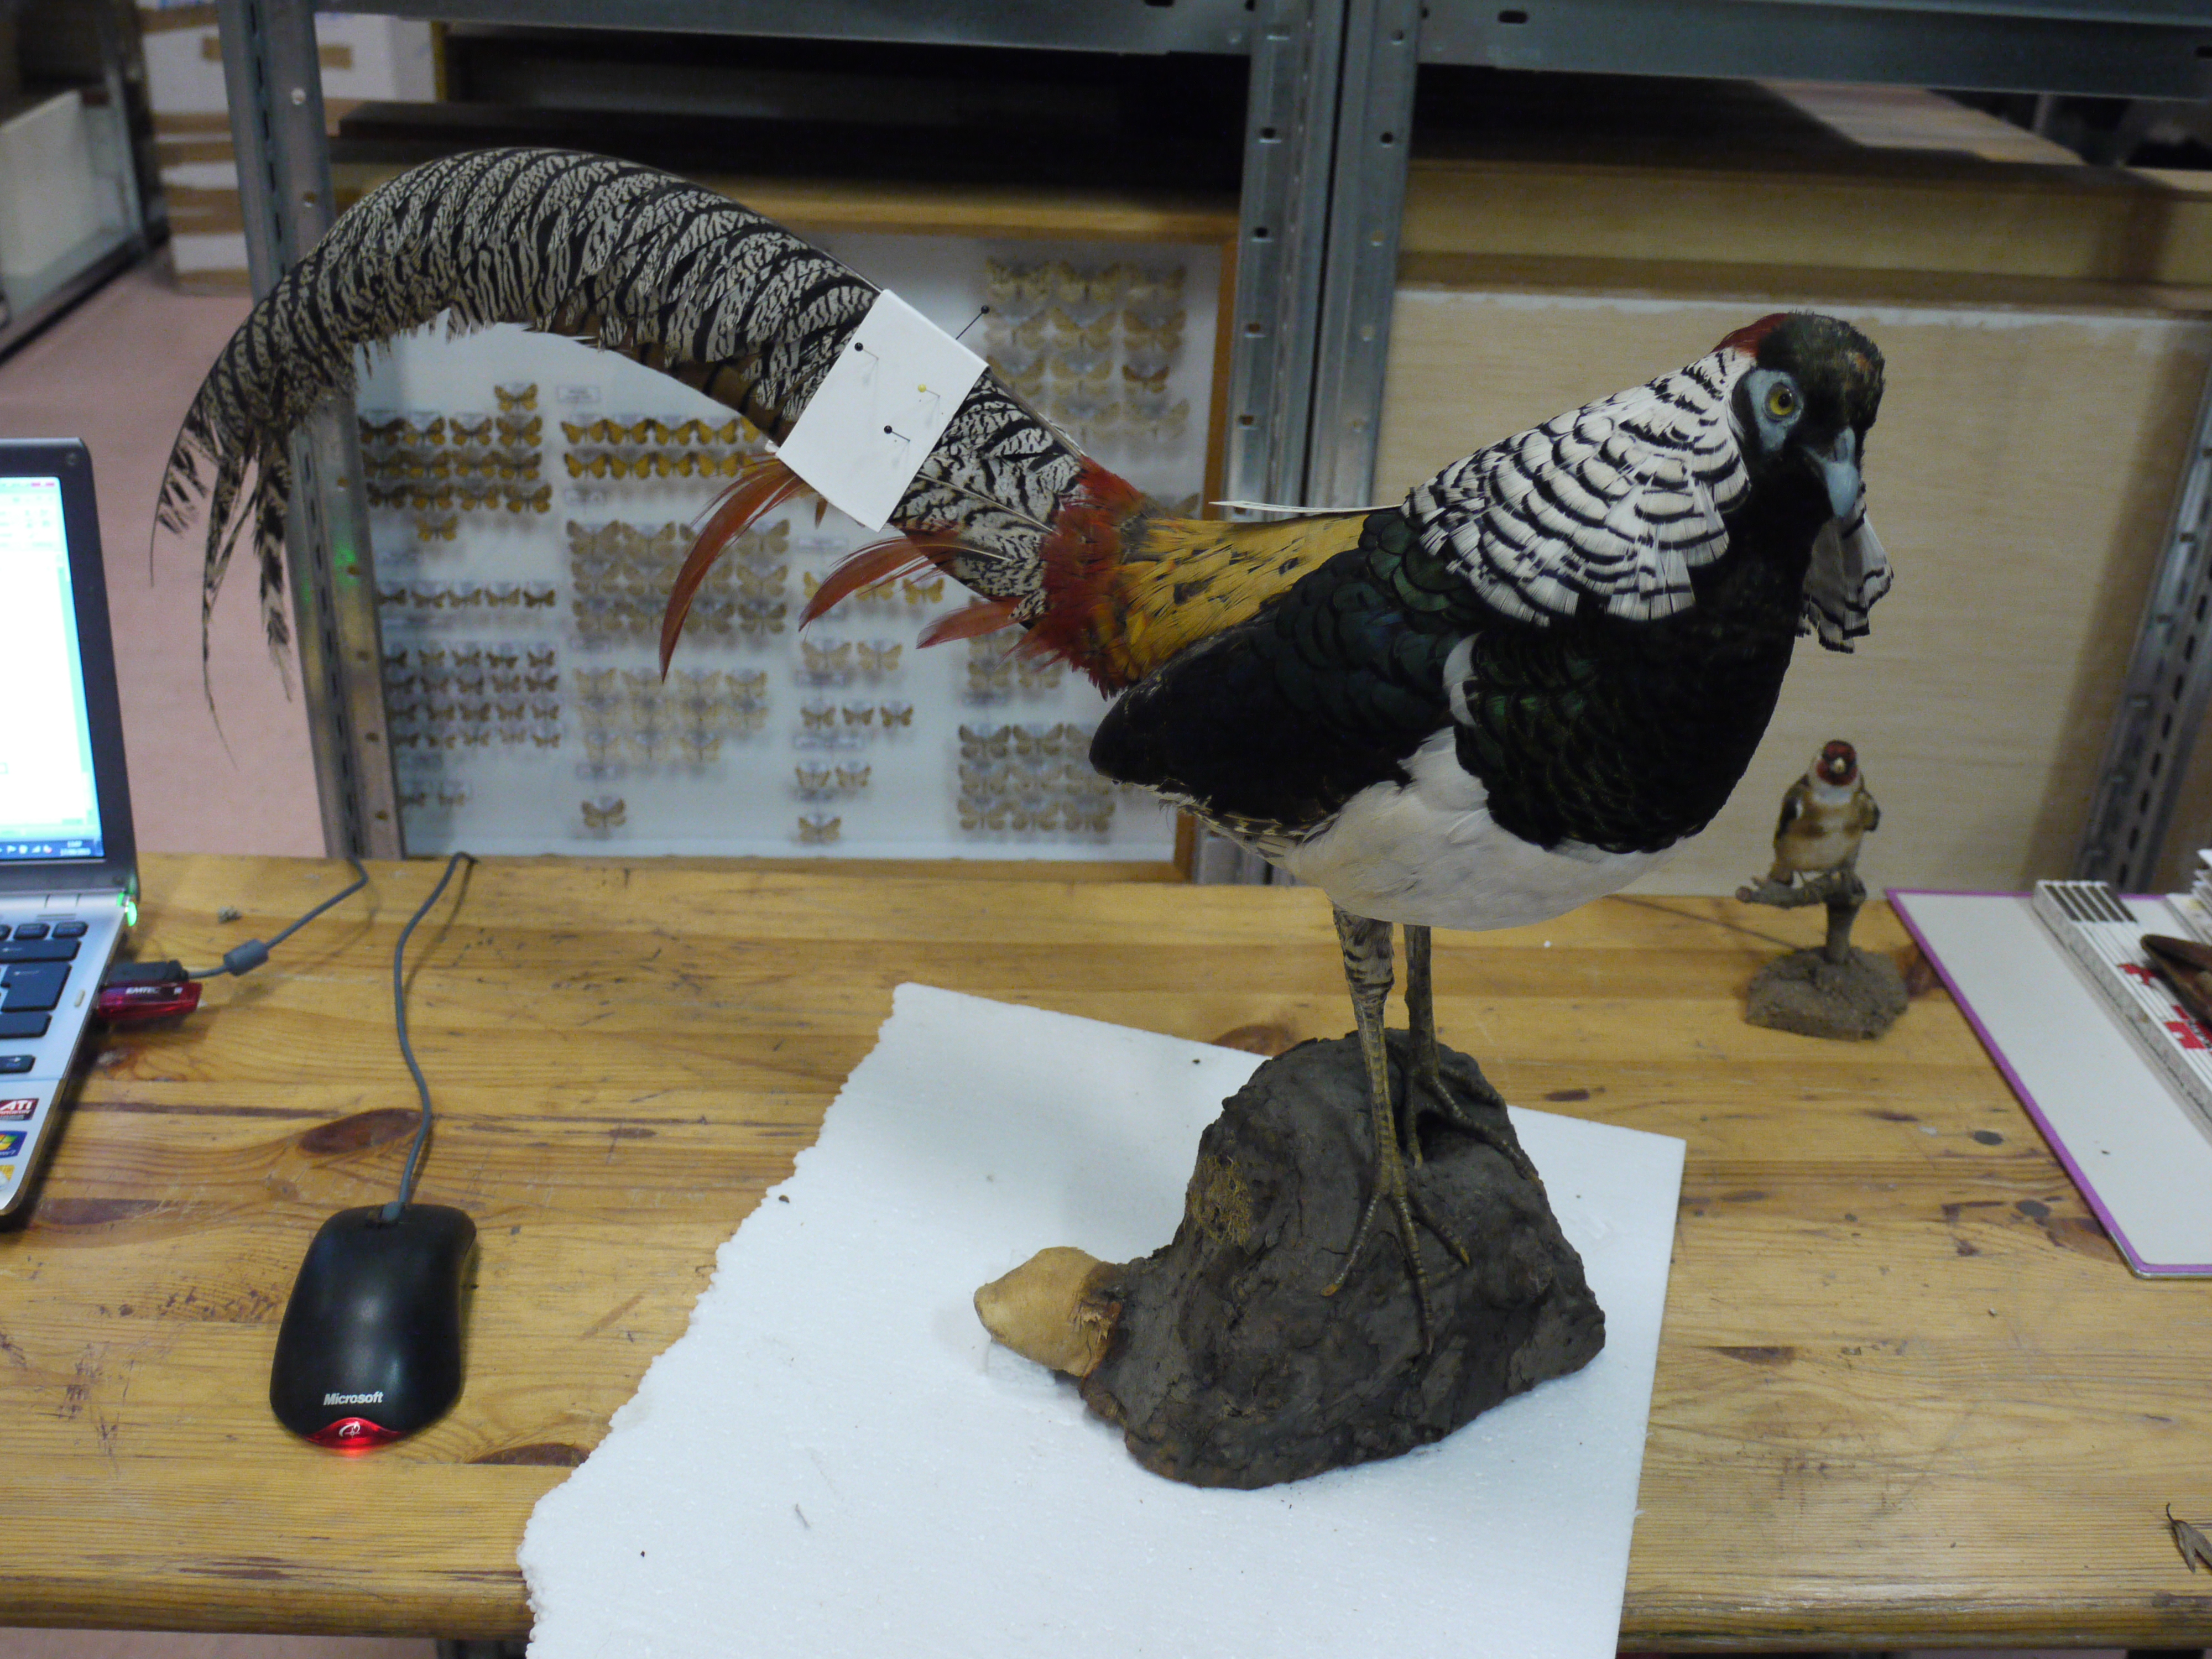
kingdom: Animalia
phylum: Chordata
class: Aves
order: Galliformes
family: Phasianidae
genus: Chrysolophus
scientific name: Chrysolophus amherstiae
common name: Lady amherst's pheasant
